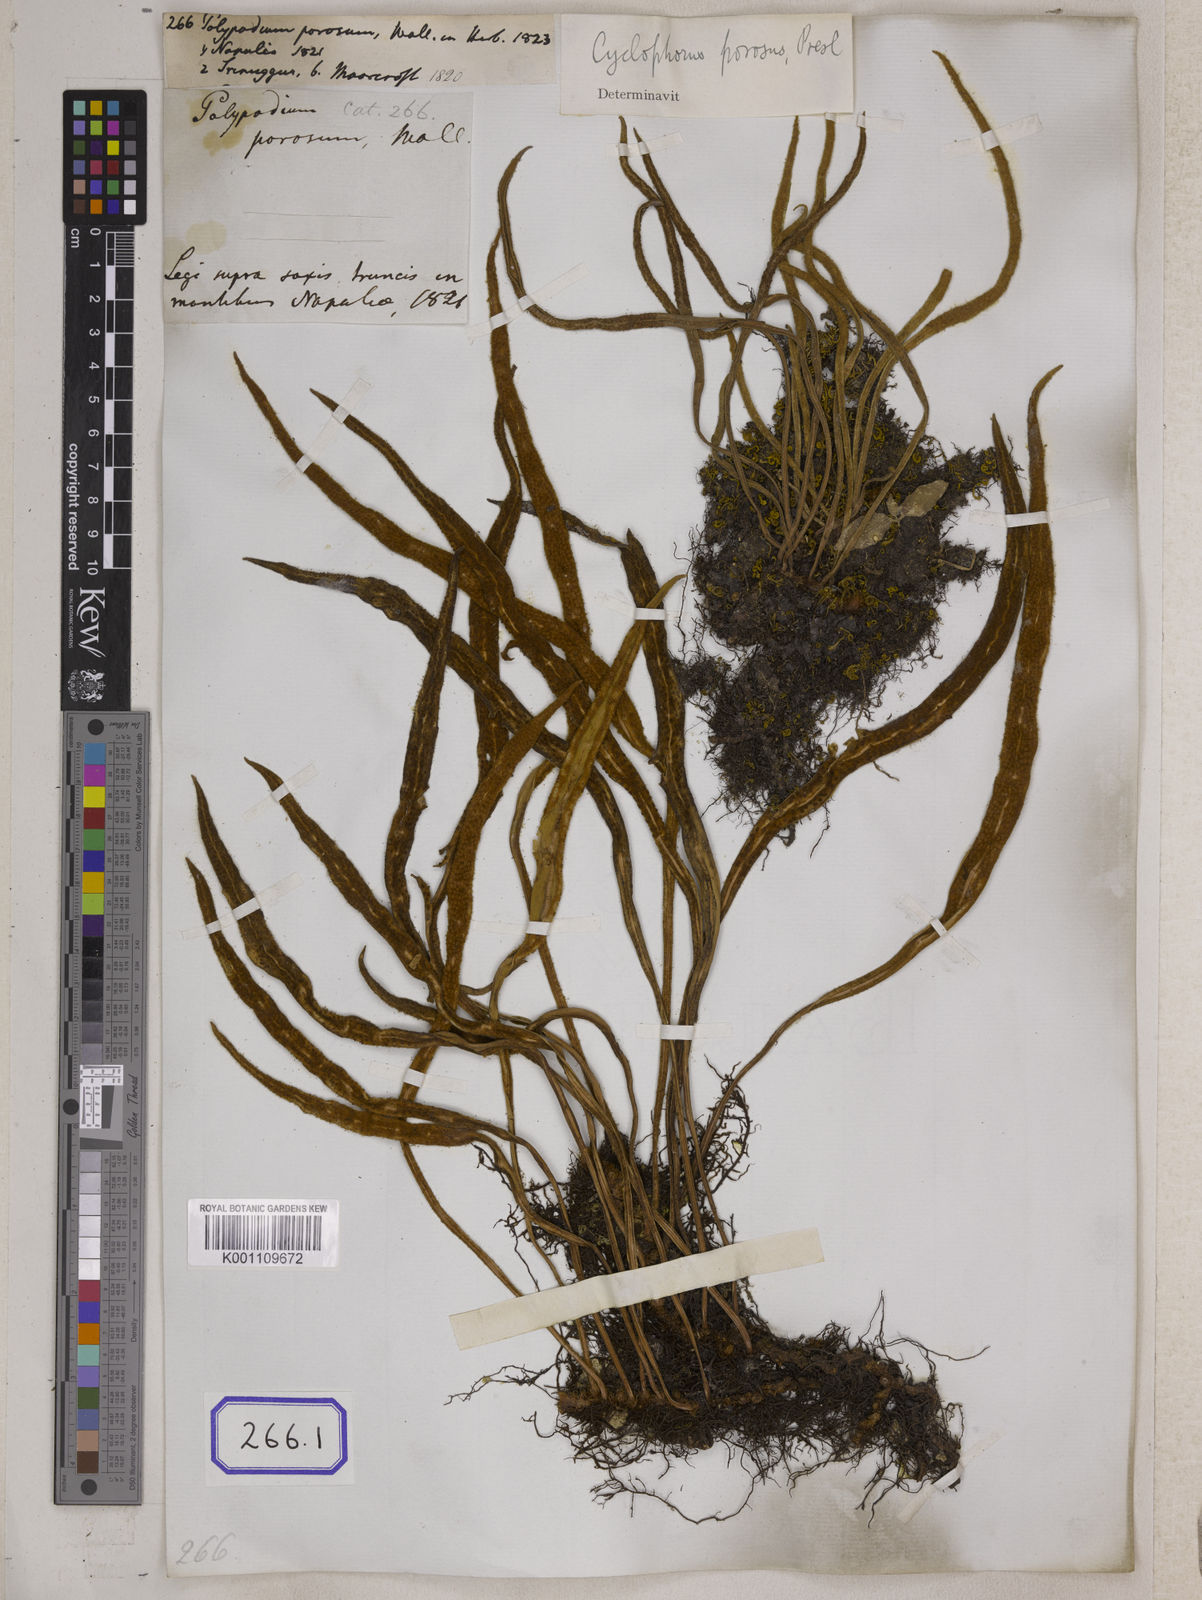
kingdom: Plantae
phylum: Tracheophyta
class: Polypodiopsida
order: Polypodiales
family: Polypodiaceae
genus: Pyrrosia
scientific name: Pyrrosia porosa
